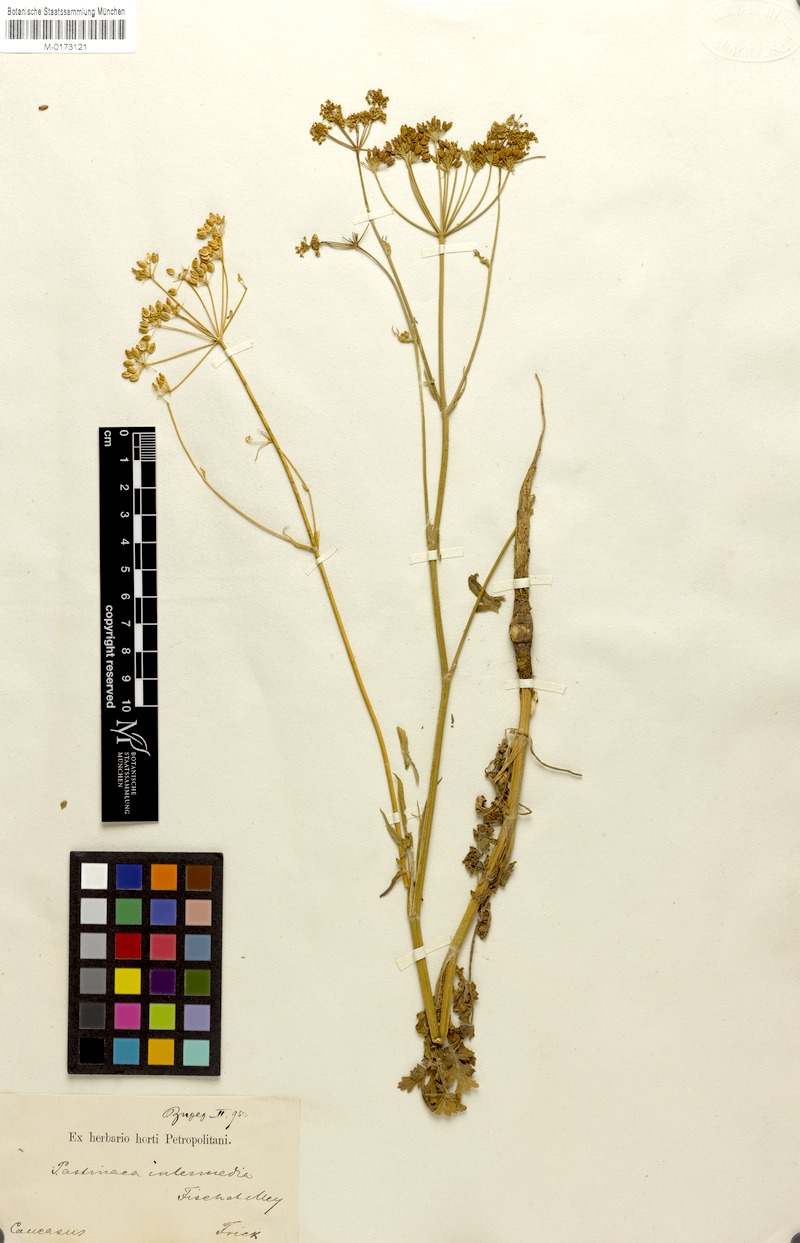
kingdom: Plantae
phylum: Tracheophyta
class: Magnoliopsida
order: Apiales
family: Apiaceae
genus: Pastinaca
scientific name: Pastinaca pimpinellifolia
